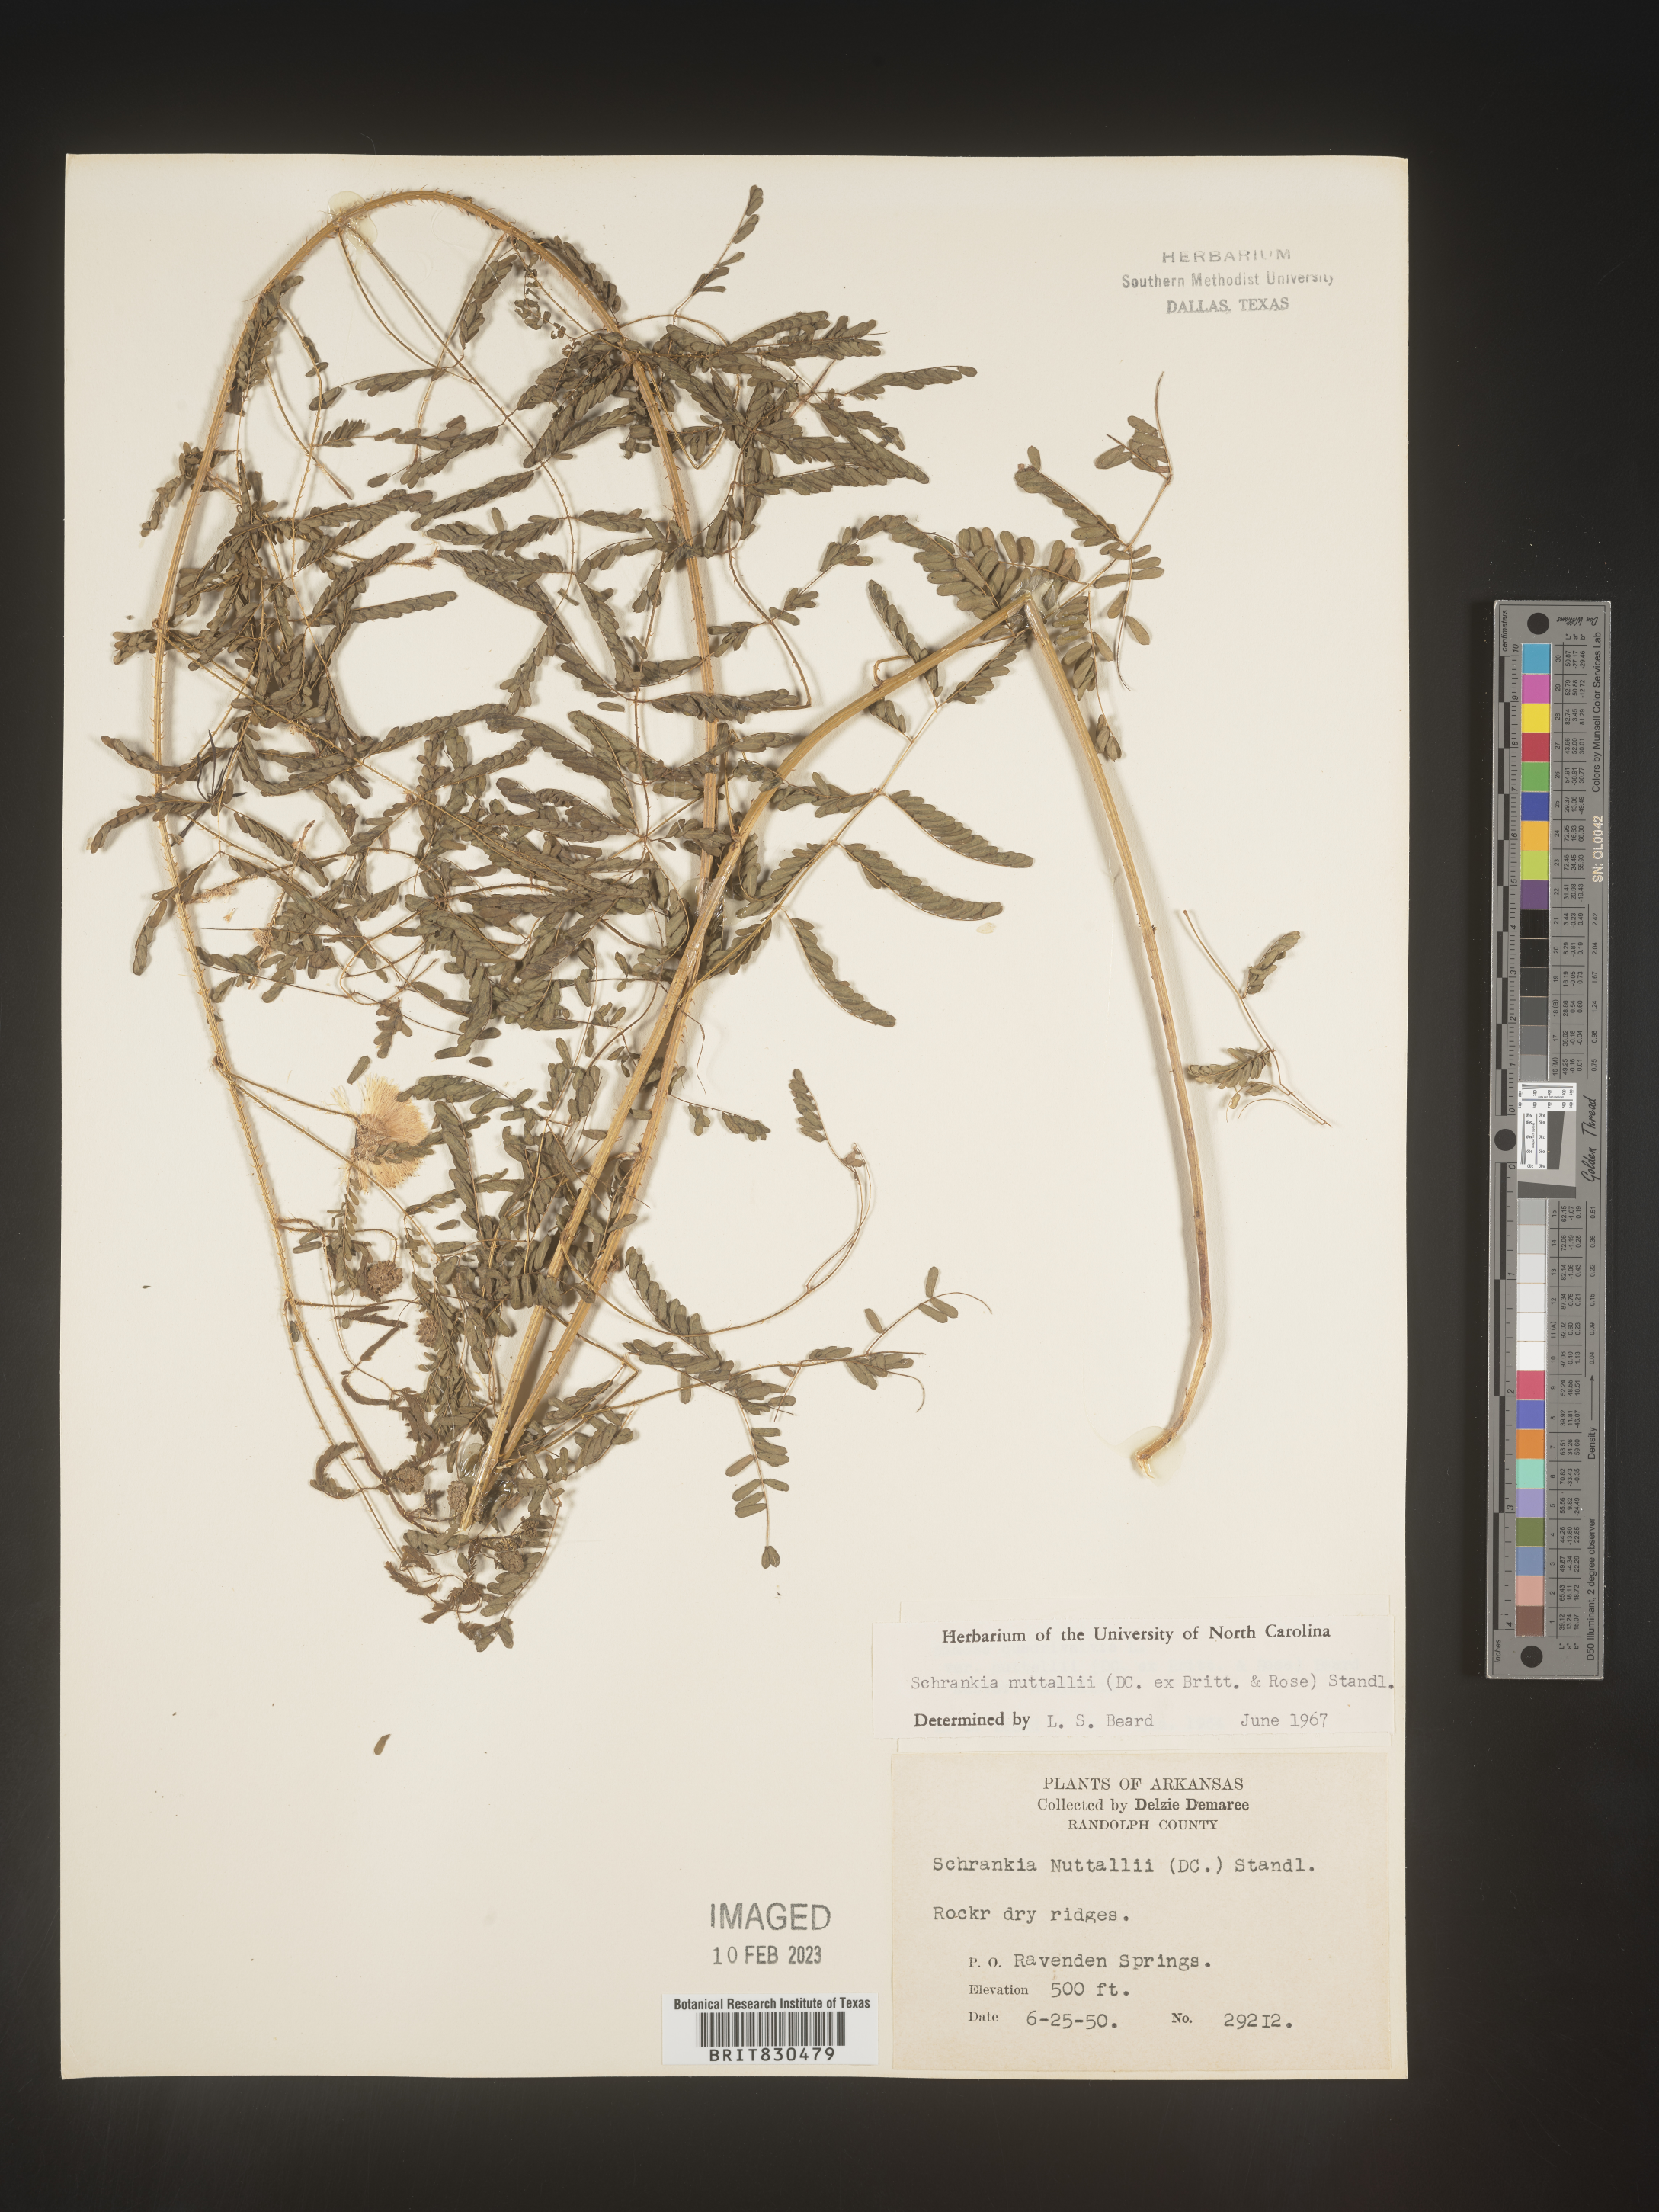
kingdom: Plantae
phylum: Tracheophyta
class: Magnoliopsida
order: Fabales
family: Fabaceae
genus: Mimosa
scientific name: Mimosa quadrivalvis
